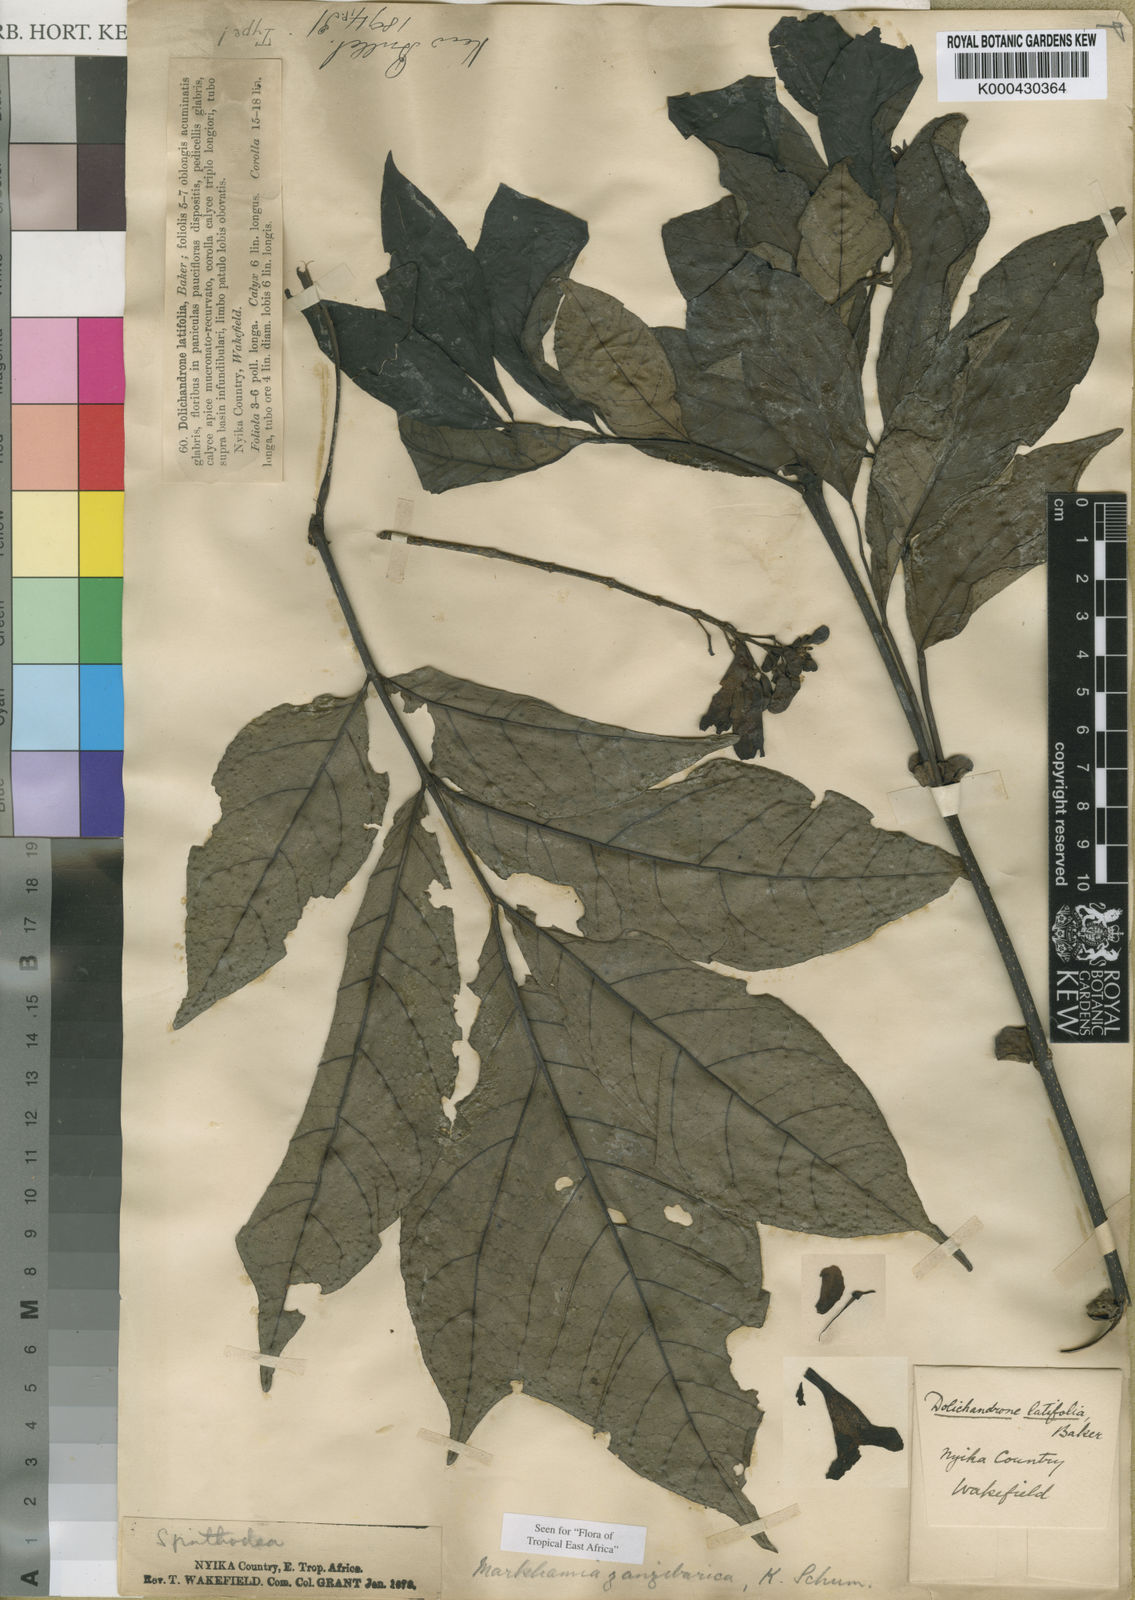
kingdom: Plantae
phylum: Tracheophyta
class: Magnoliopsida
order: Lamiales
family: Bignoniaceae
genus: Markhamia
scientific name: Markhamia zanzibarica
